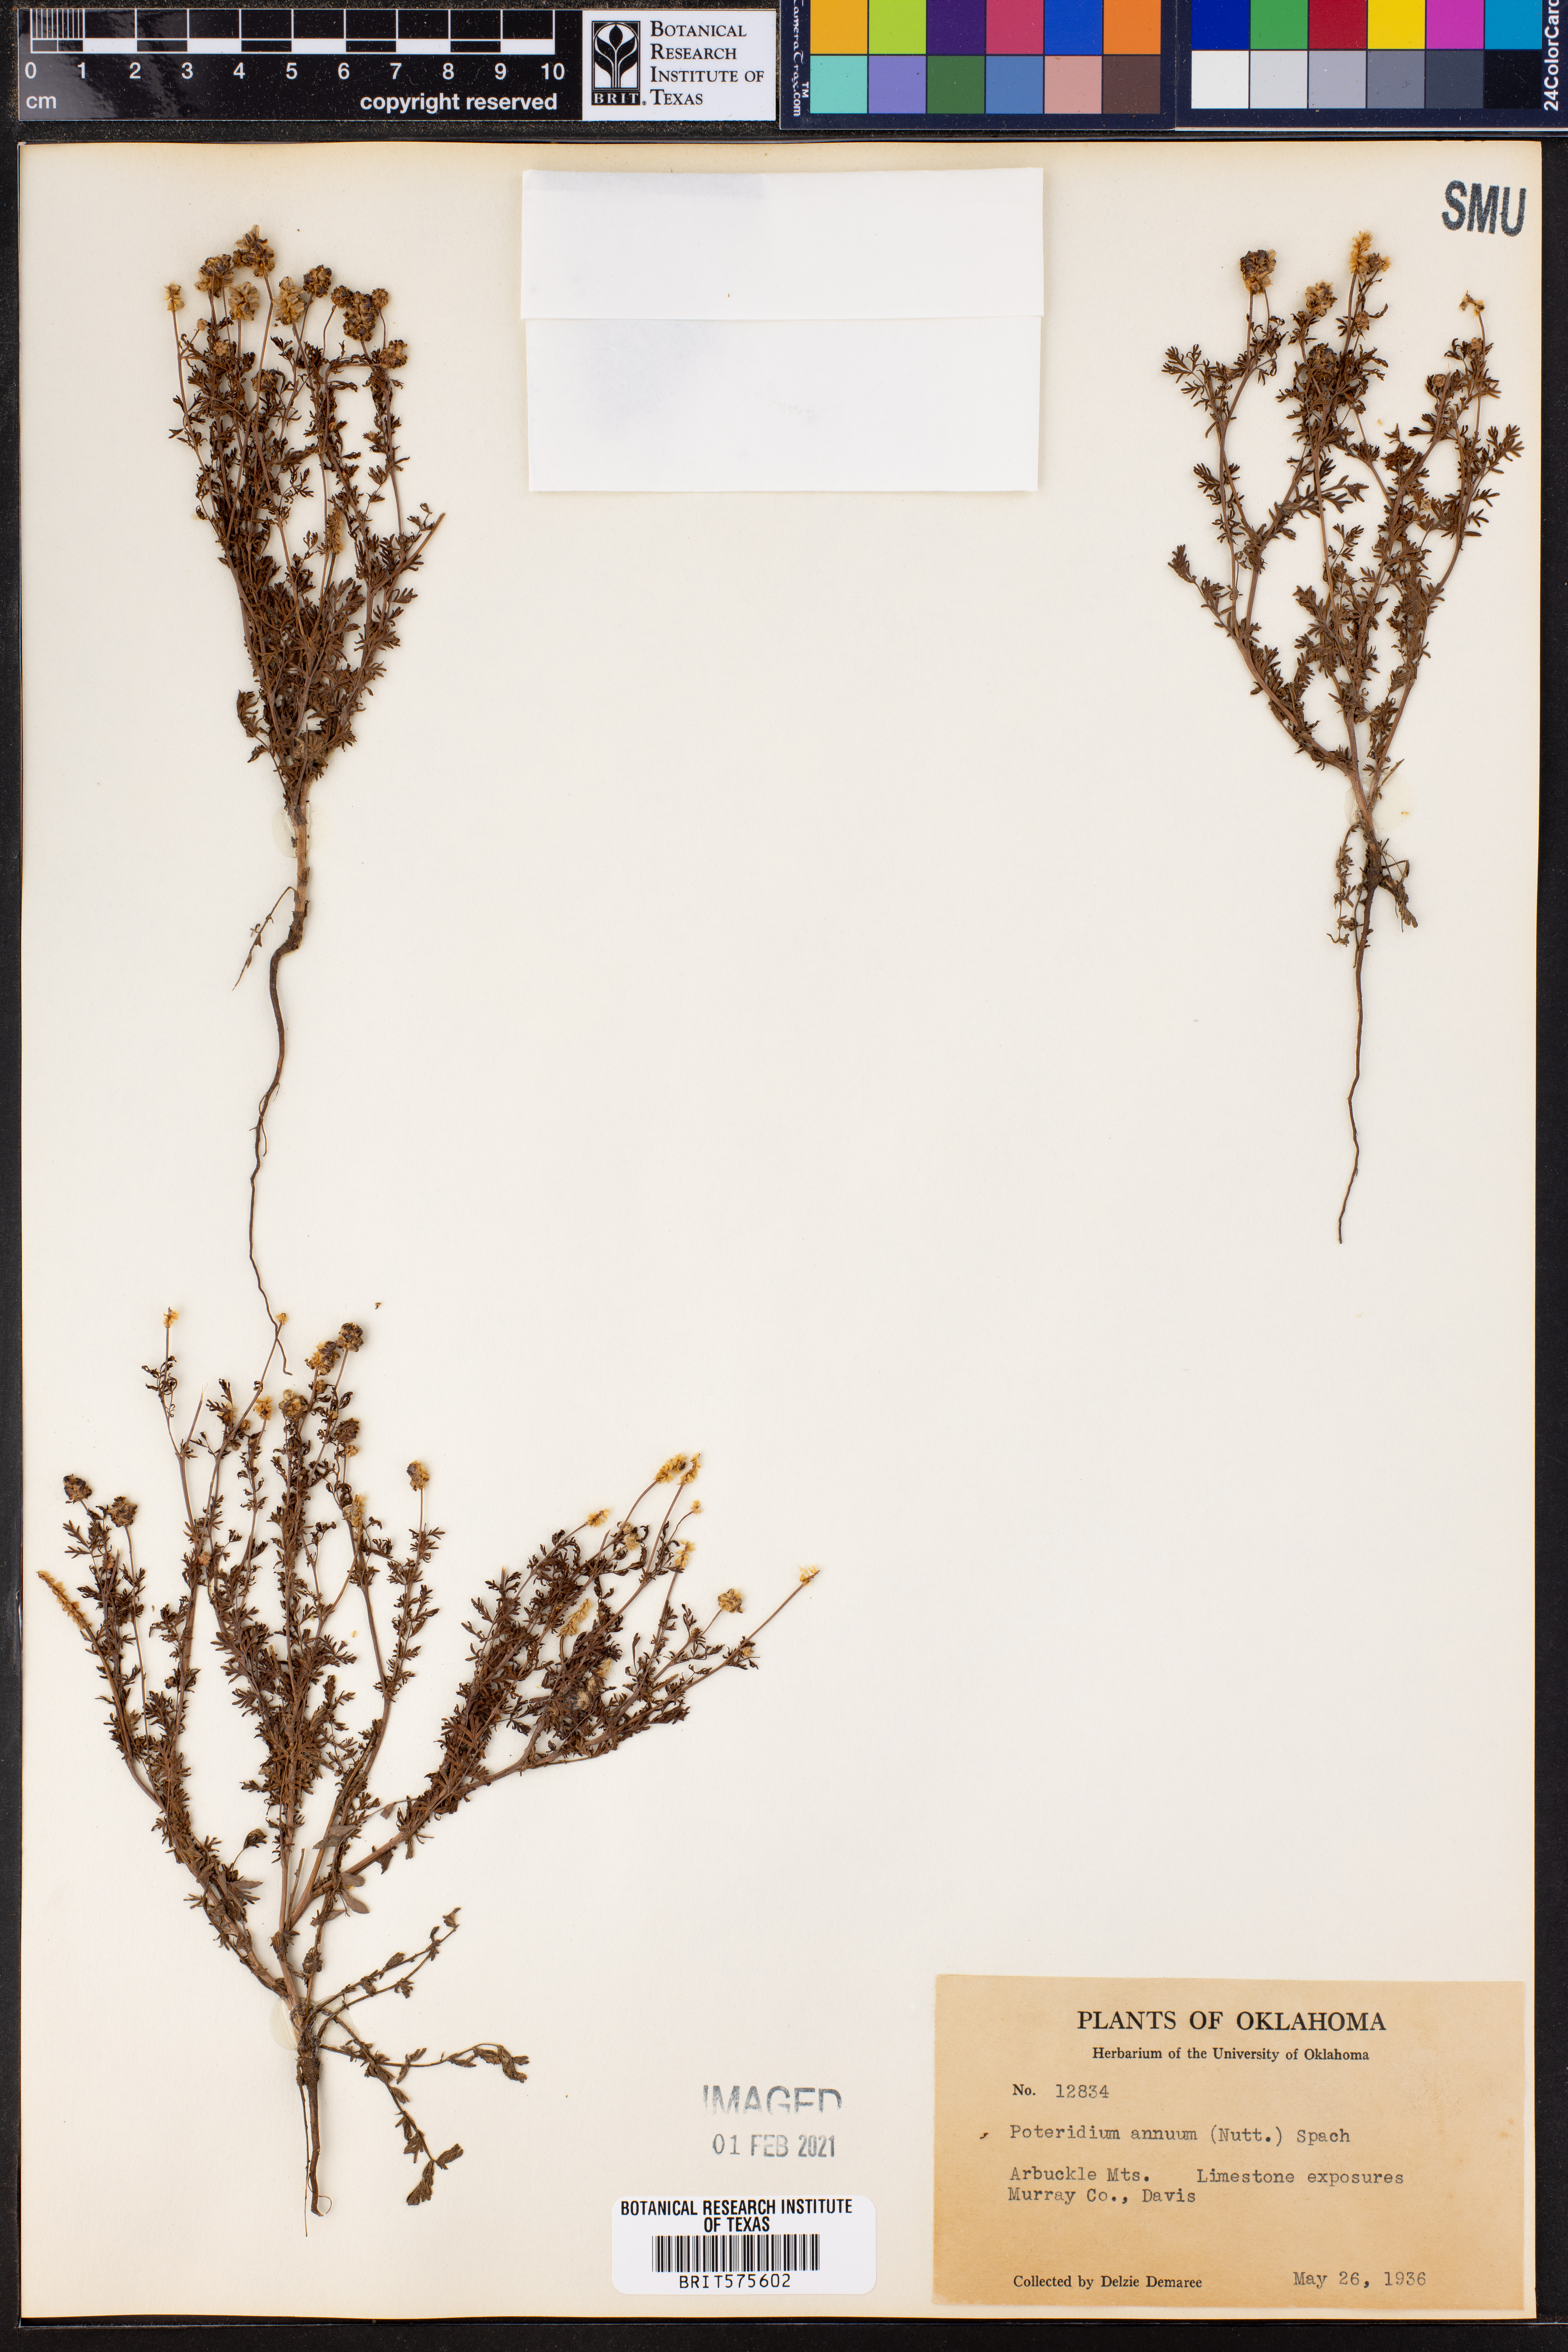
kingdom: Plantae
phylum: Tracheophyta
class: Magnoliopsida
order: Rosales
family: Rosaceae
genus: Poteridium
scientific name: Poteridium annuum
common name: Annual burnet
